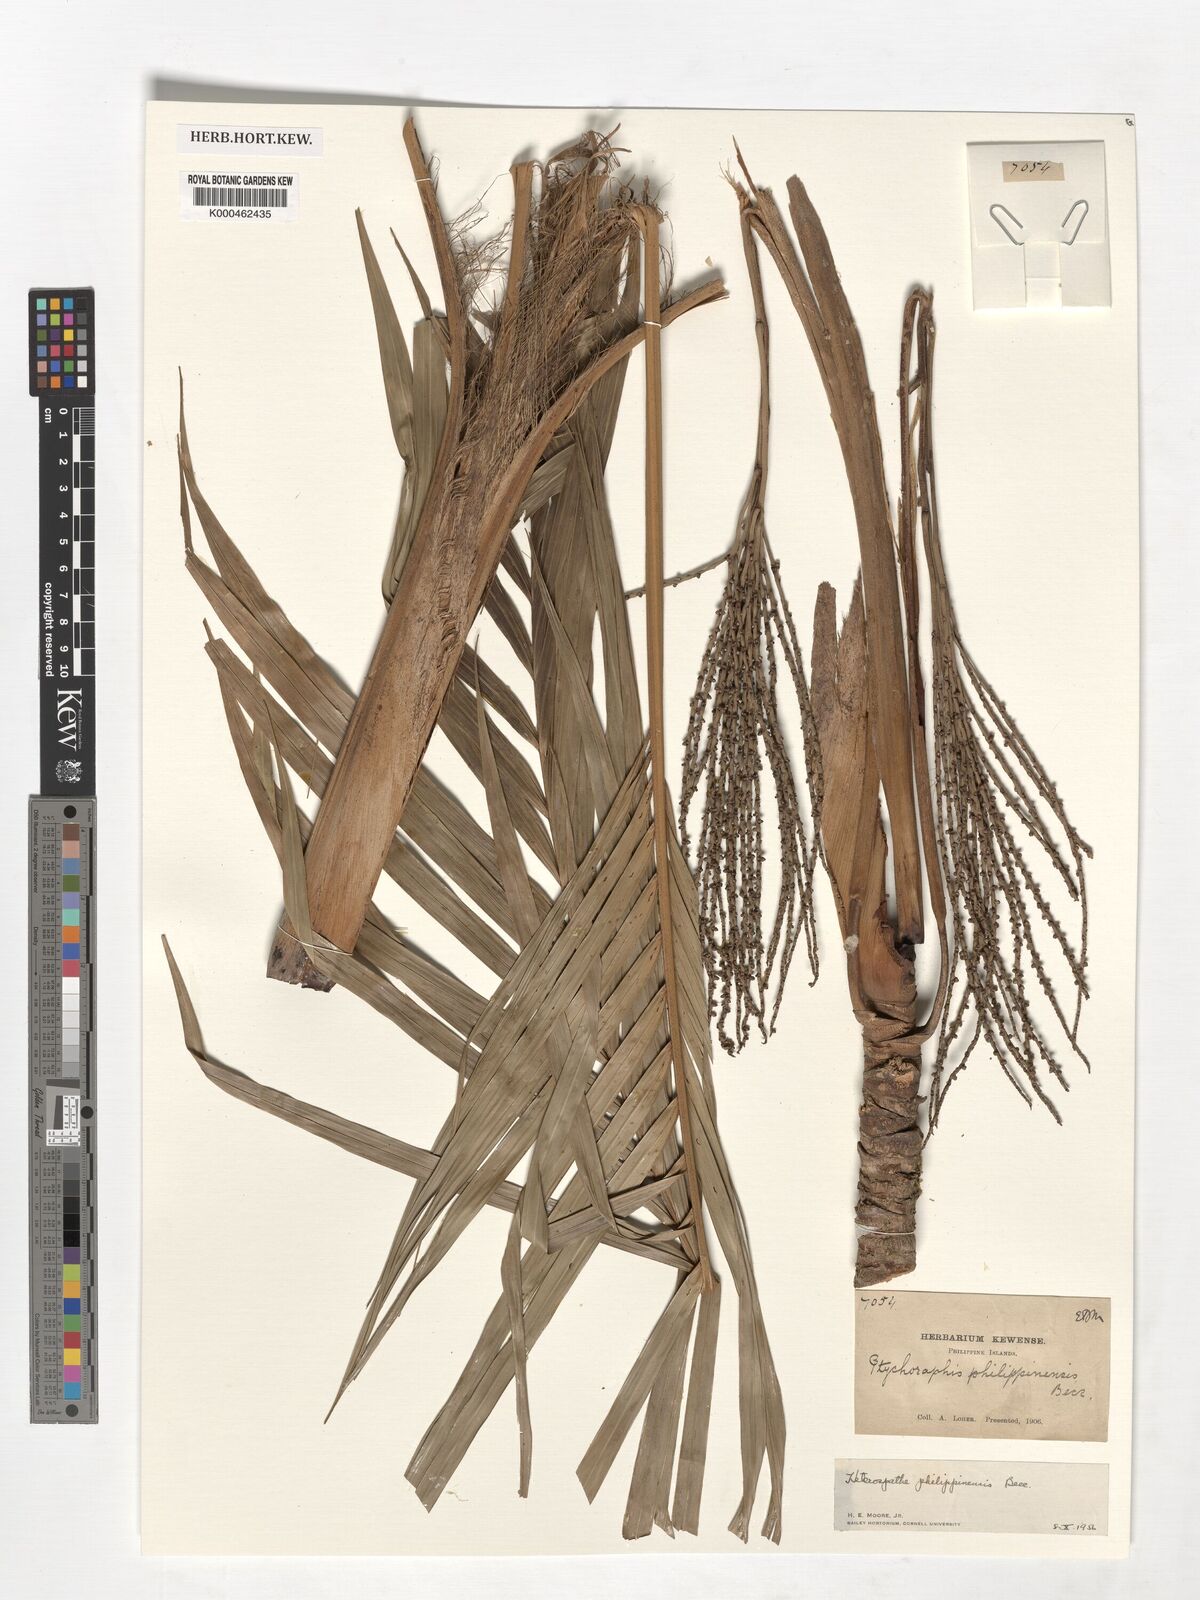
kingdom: Plantae
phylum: Tracheophyta
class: Liliopsida
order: Arecales
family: Arecaceae
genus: Heterospathe
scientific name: Heterospathe philippinensis
